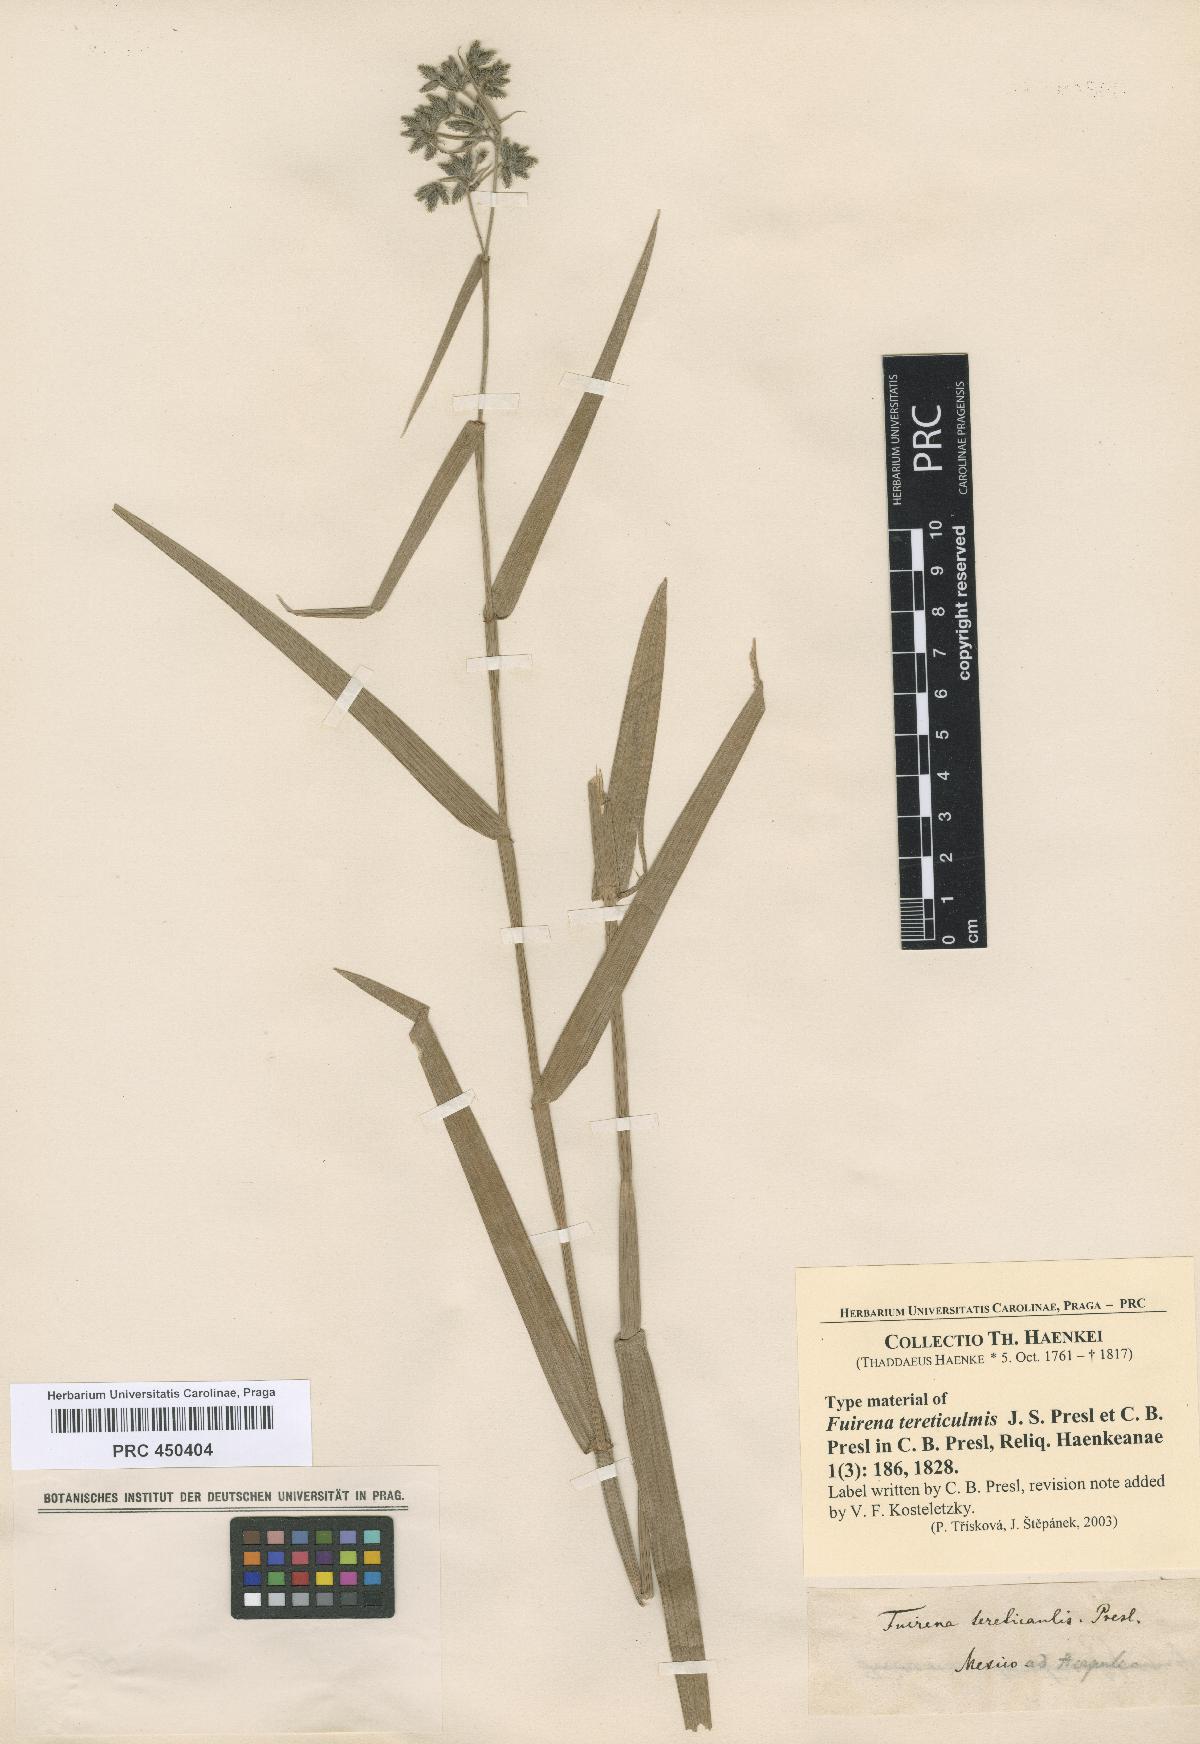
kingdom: Plantae
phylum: Tracheophyta
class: Liliopsida
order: Poales
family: Cyperaceae
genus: Fuirena
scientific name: Fuirena umbellata
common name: Yefen
